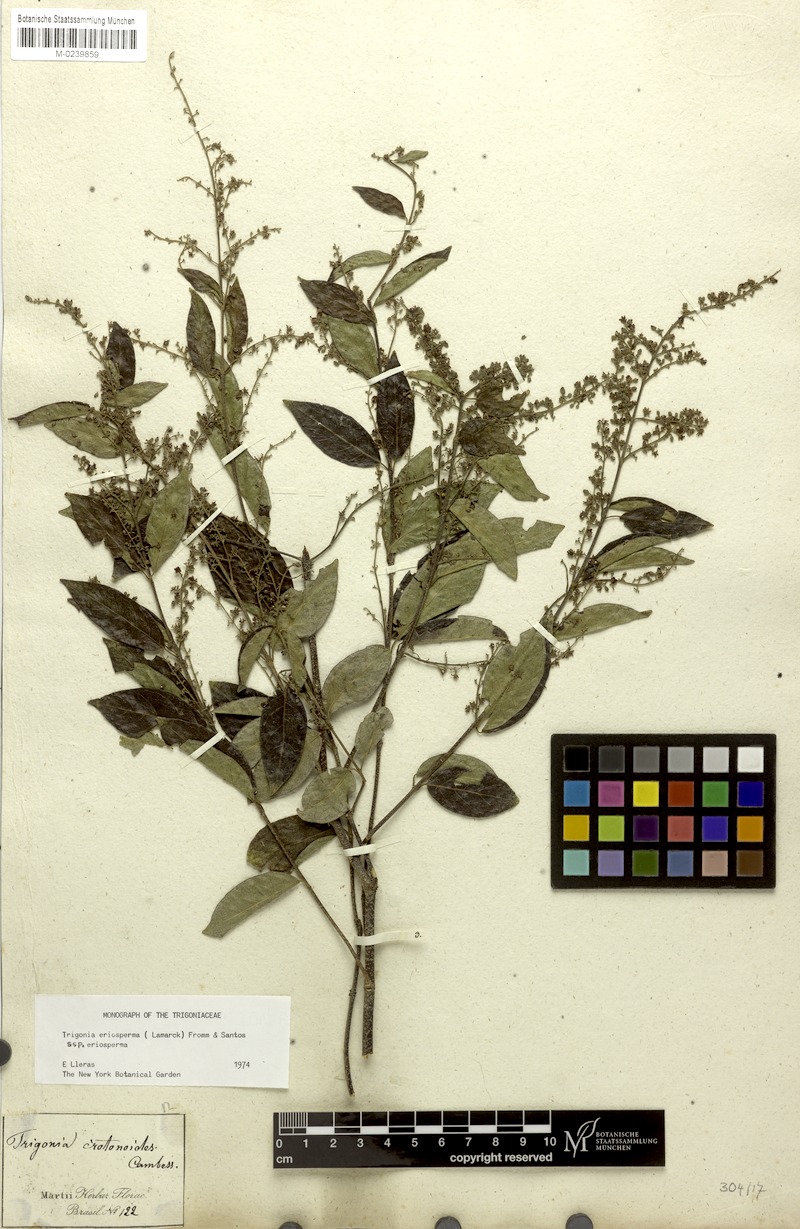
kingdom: Plantae
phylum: Tracheophyta
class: Magnoliopsida
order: Malpighiales
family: Trigoniaceae
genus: Trigonia
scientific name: Trigonia eriosperma
